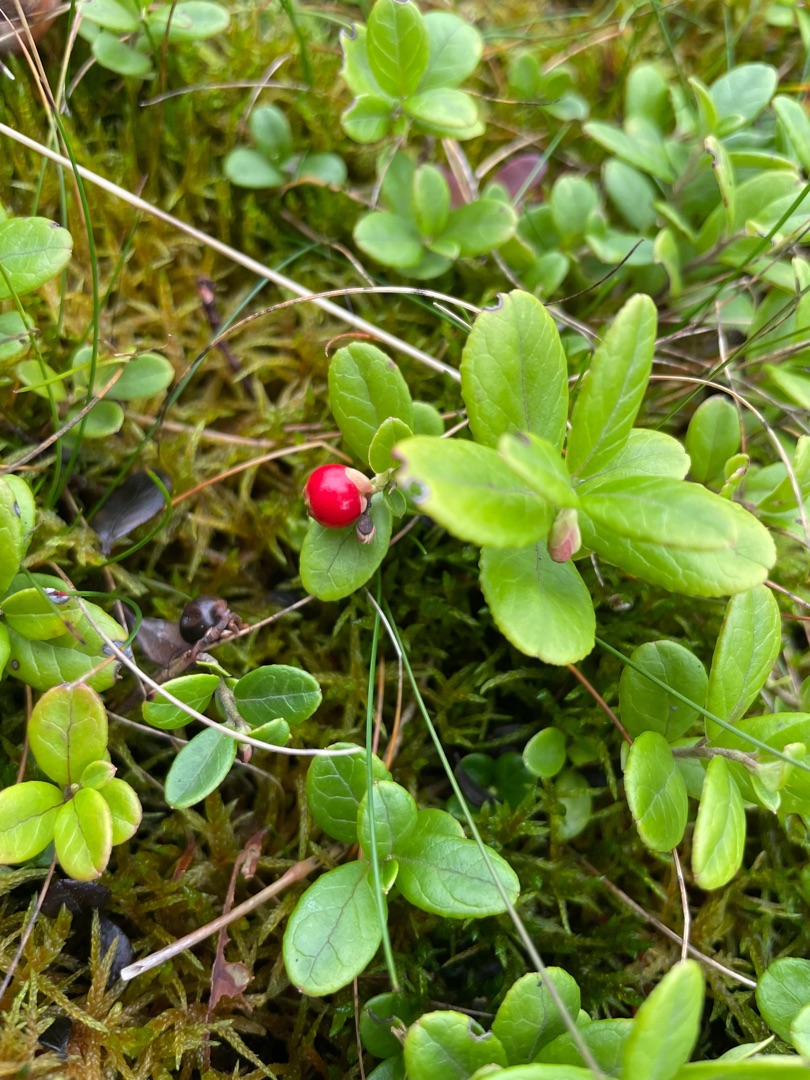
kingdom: Plantae
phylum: Tracheophyta
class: Magnoliopsida
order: Ericales
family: Ericaceae
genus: Vaccinium
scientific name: Vaccinium vitis-idaea
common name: Tyttebær
